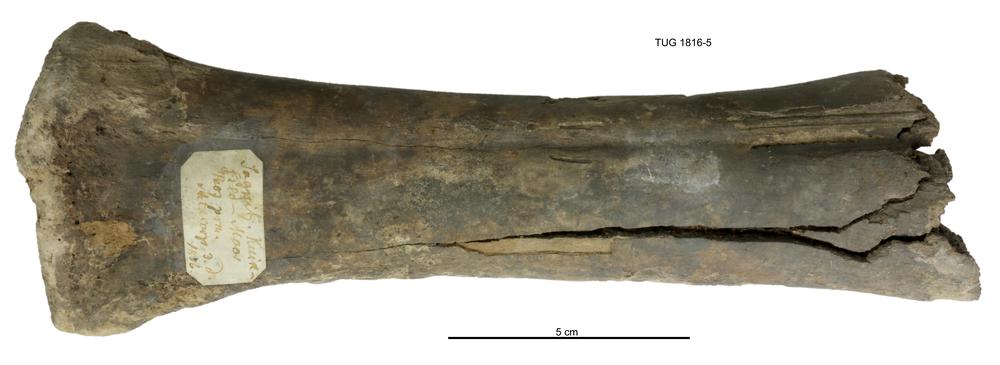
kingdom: Animalia
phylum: Chordata
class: Mammalia
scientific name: Mammalia
